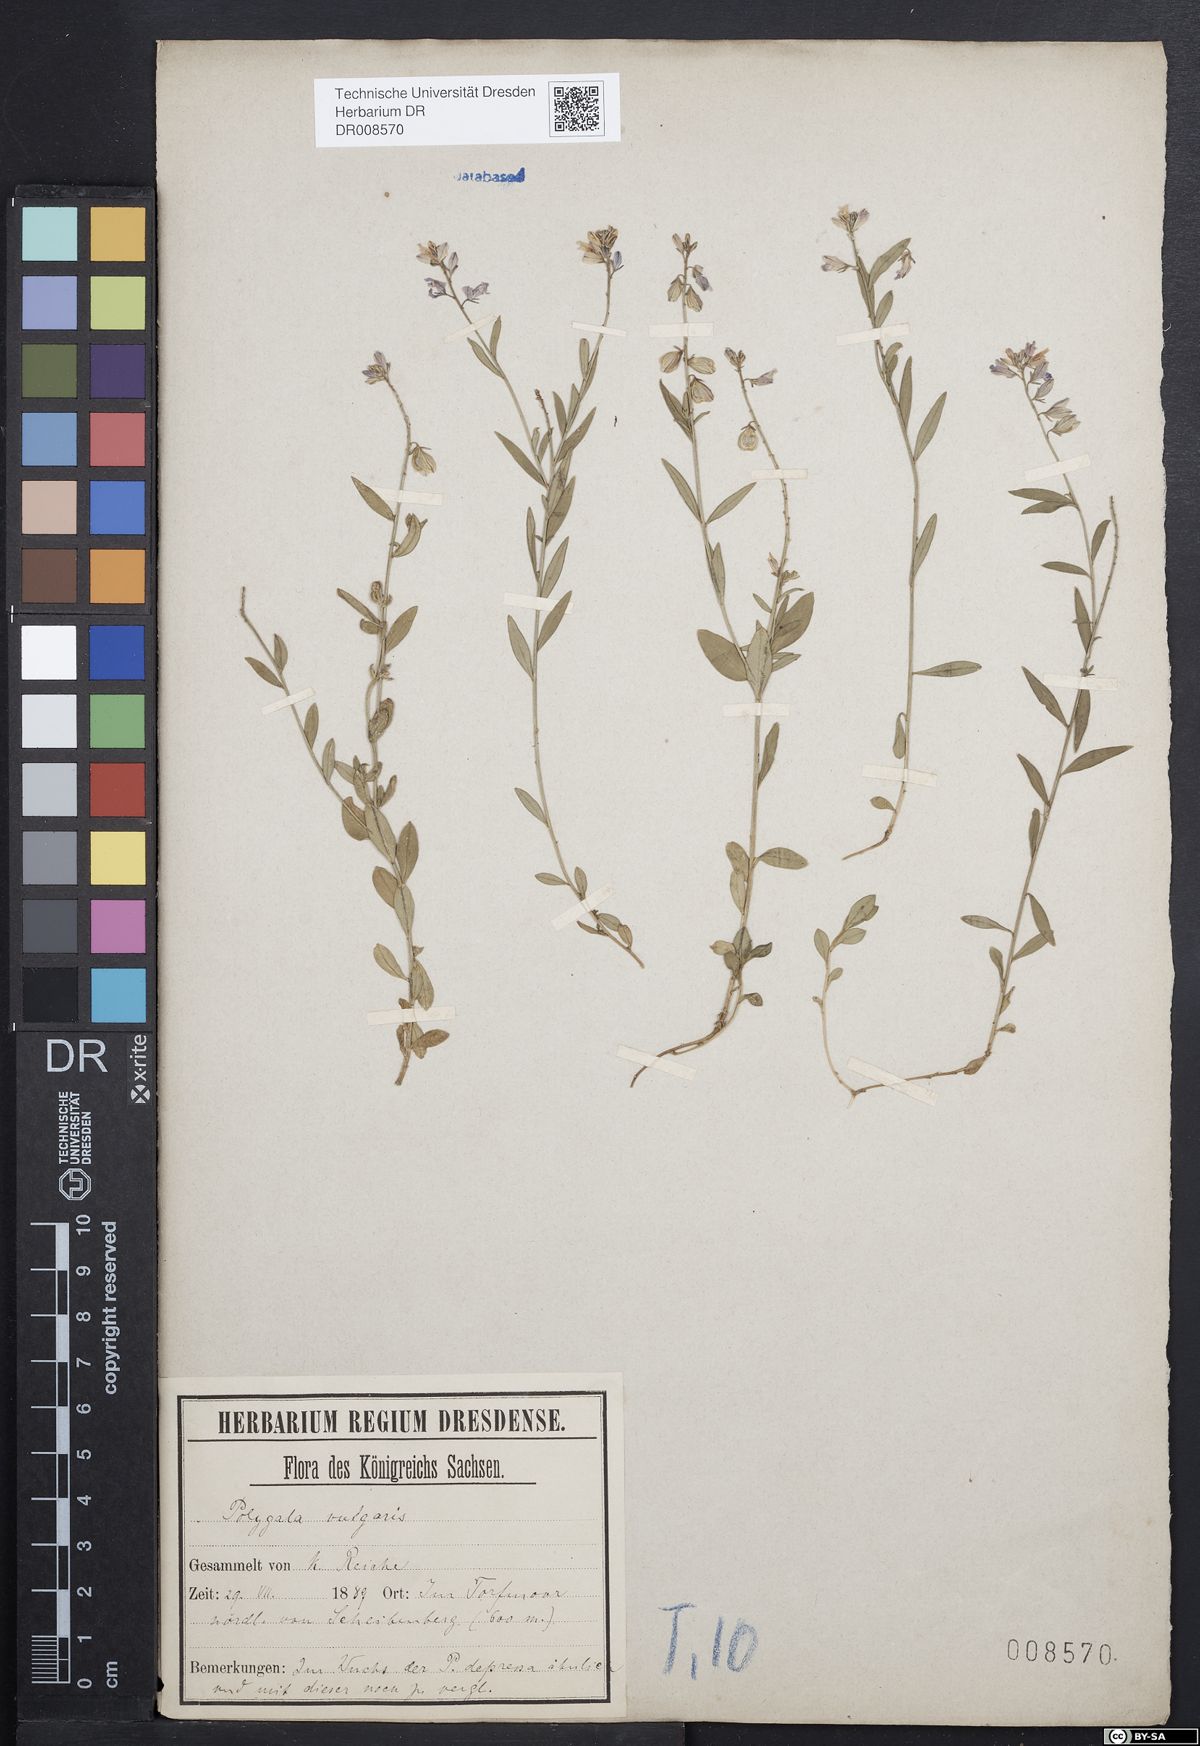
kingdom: Plantae
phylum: Tracheophyta
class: Magnoliopsida
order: Fabales
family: Polygalaceae
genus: Polygala
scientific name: Polygala vulgaris
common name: Common milkwort
